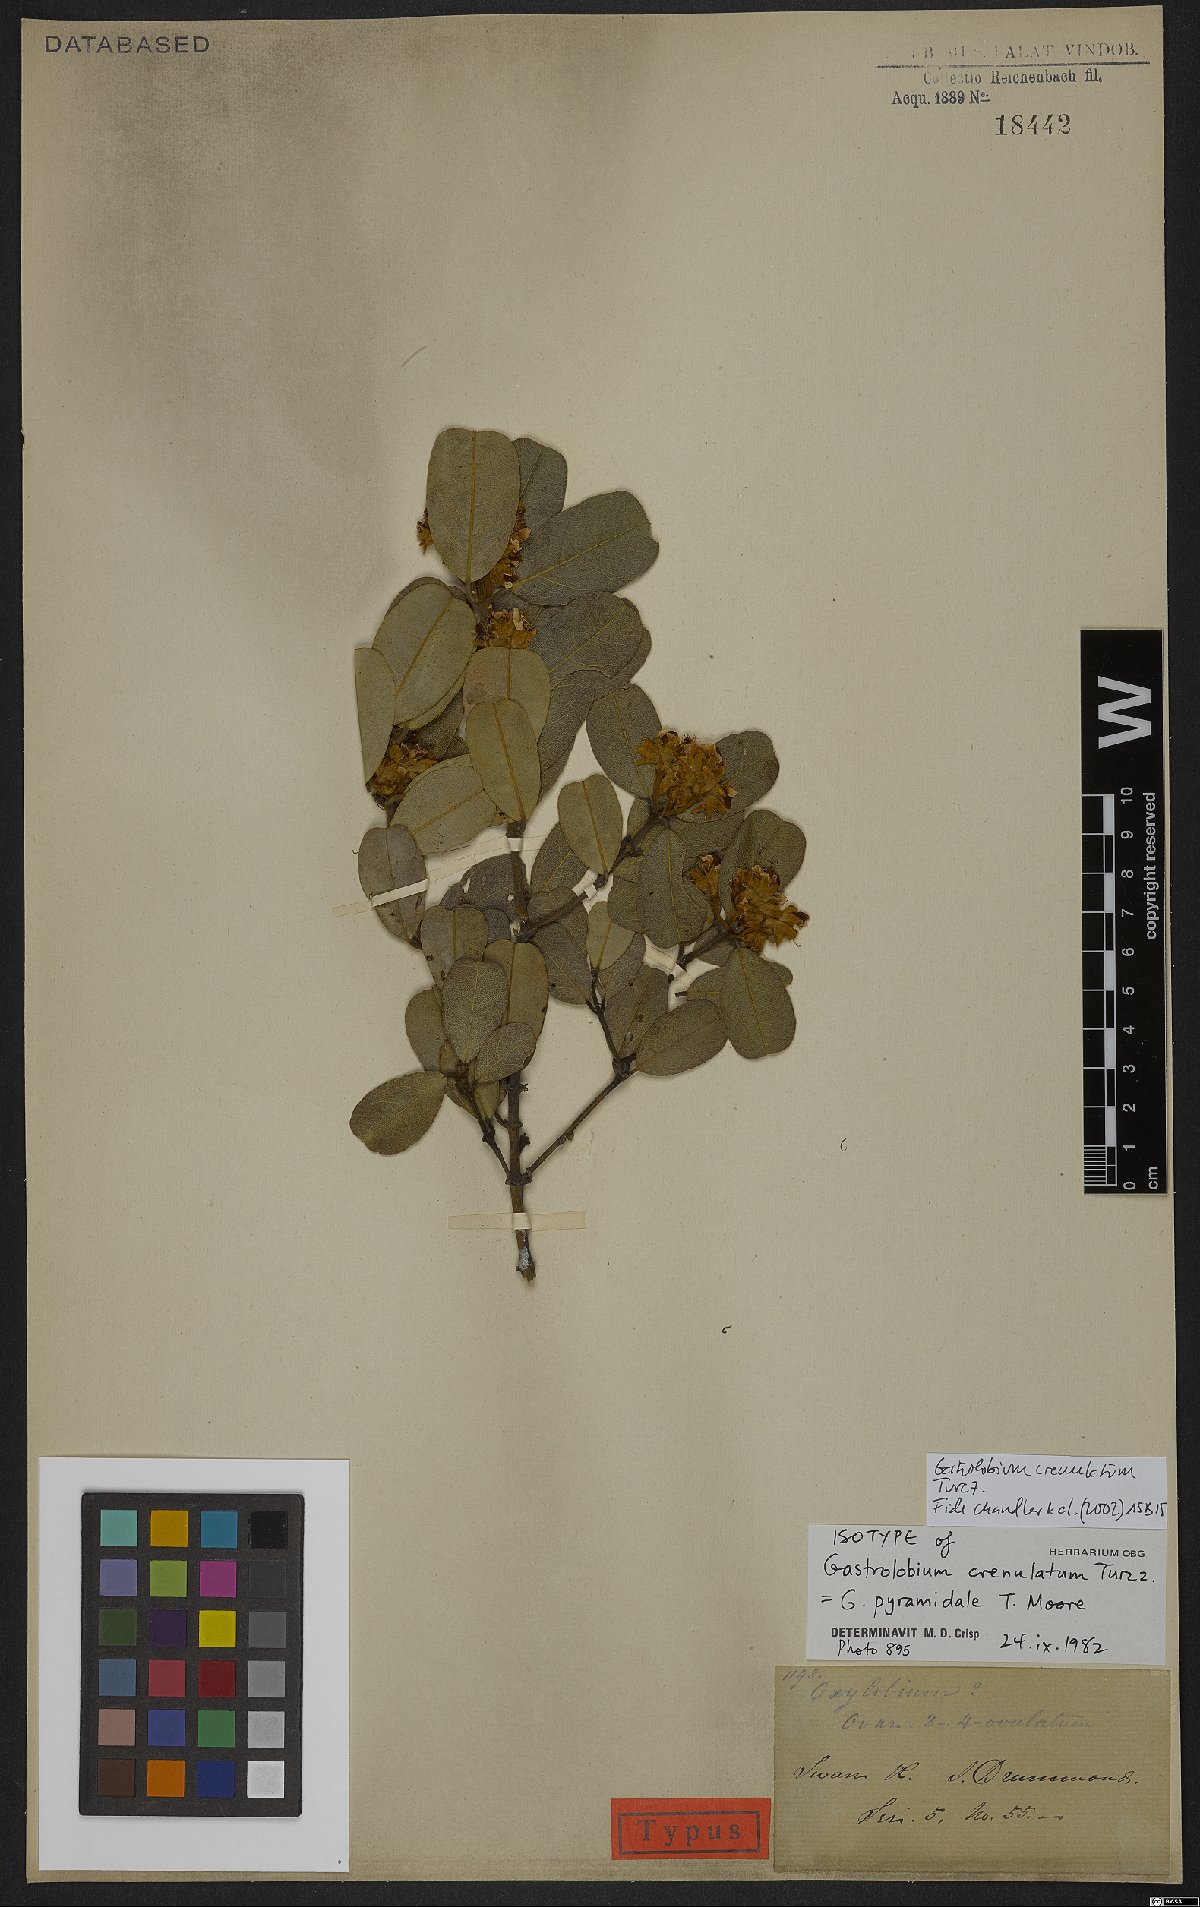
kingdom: Plantae
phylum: Tracheophyta
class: Magnoliopsida
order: Fabales
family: Fabaceae
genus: Gastrolobium
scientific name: Gastrolobium crenulatum
